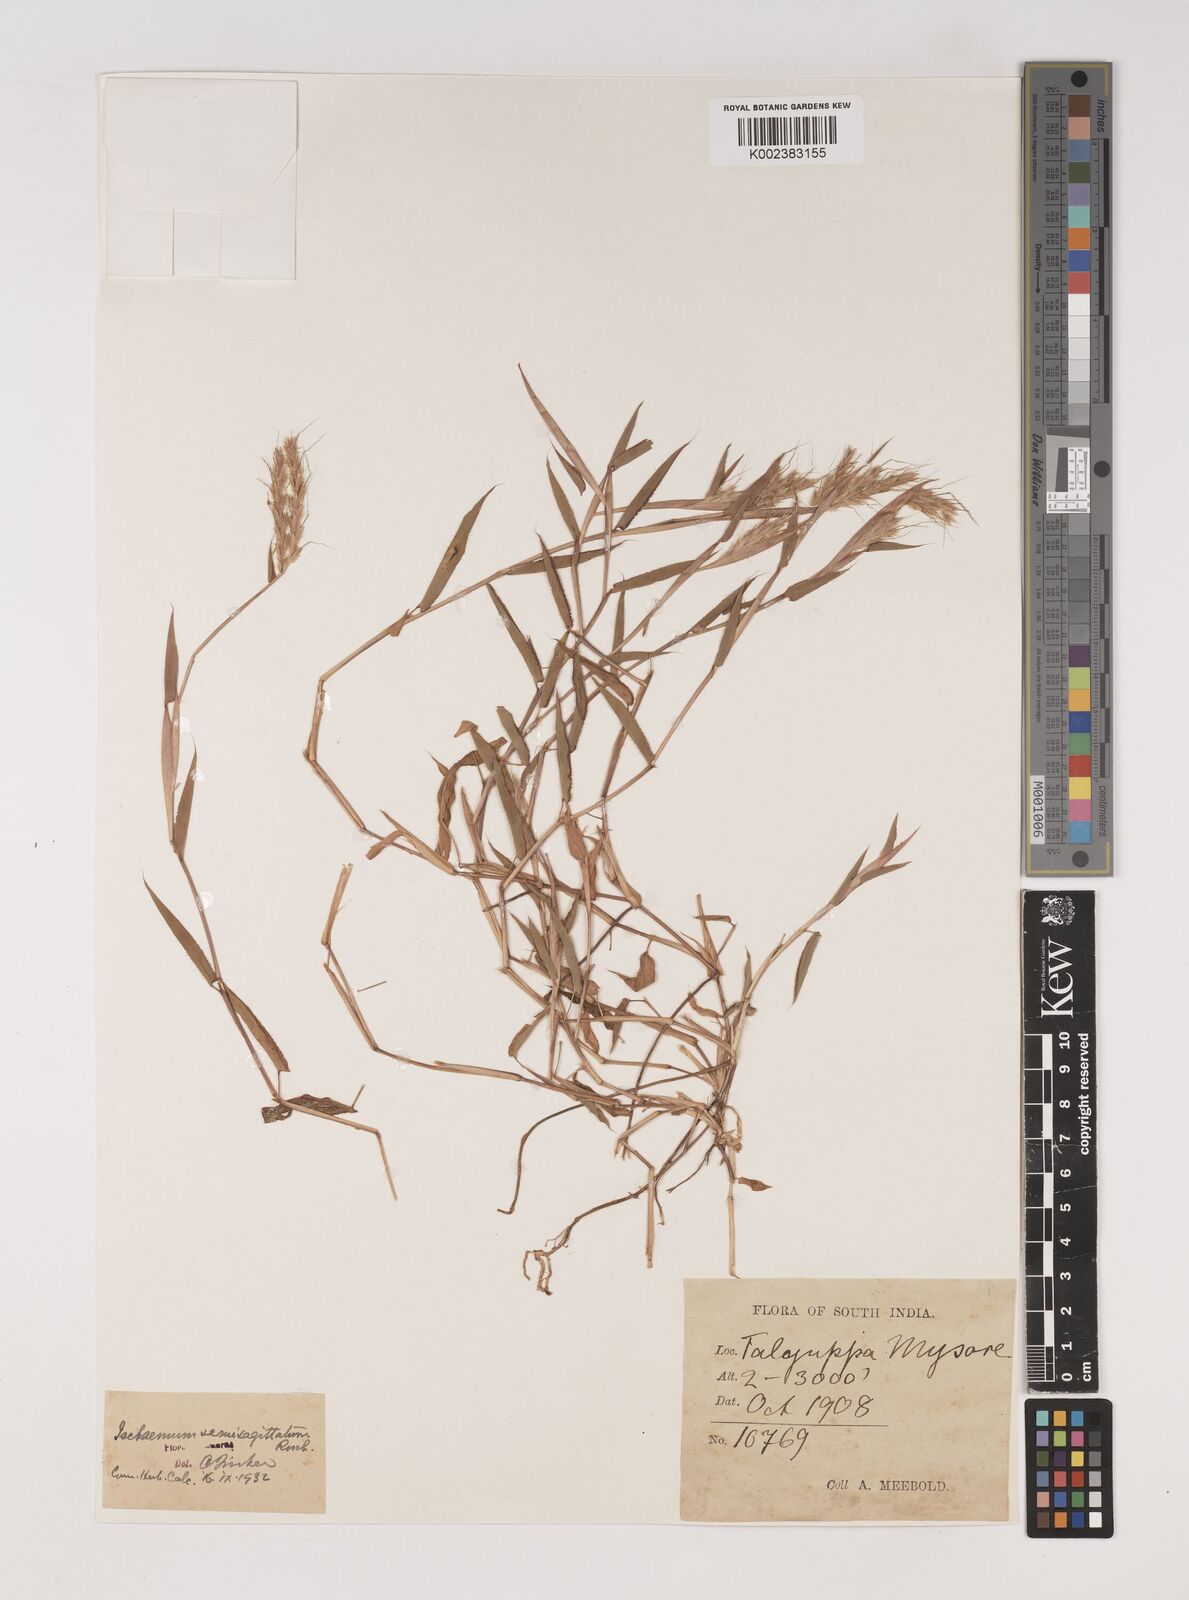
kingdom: Plantae
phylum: Tracheophyta
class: Liliopsida
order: Poales
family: Poaceae
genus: Ischaemum
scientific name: Ischaemum semisagittatum
